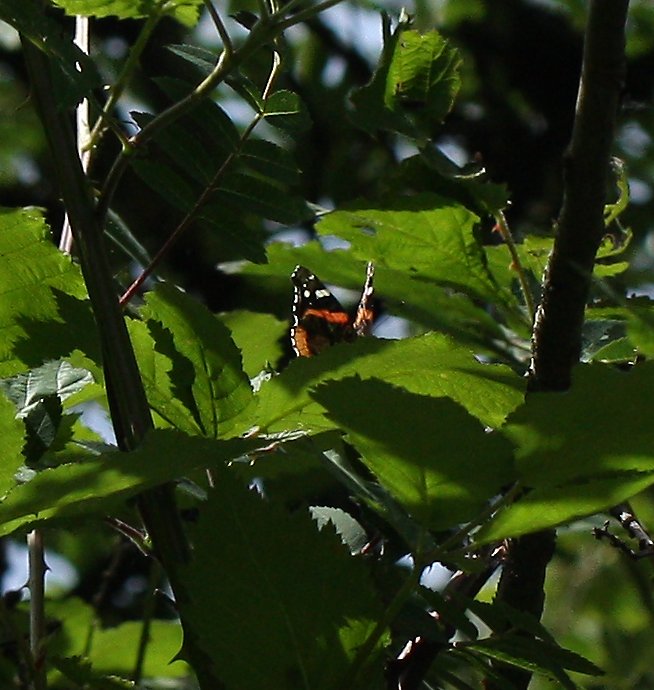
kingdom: Animalia
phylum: Arthropoda
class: Insecta
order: Lepidoptera
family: Nymphalidae
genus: Vanessa
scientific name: Vanessa atalanta
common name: Red Admiral
